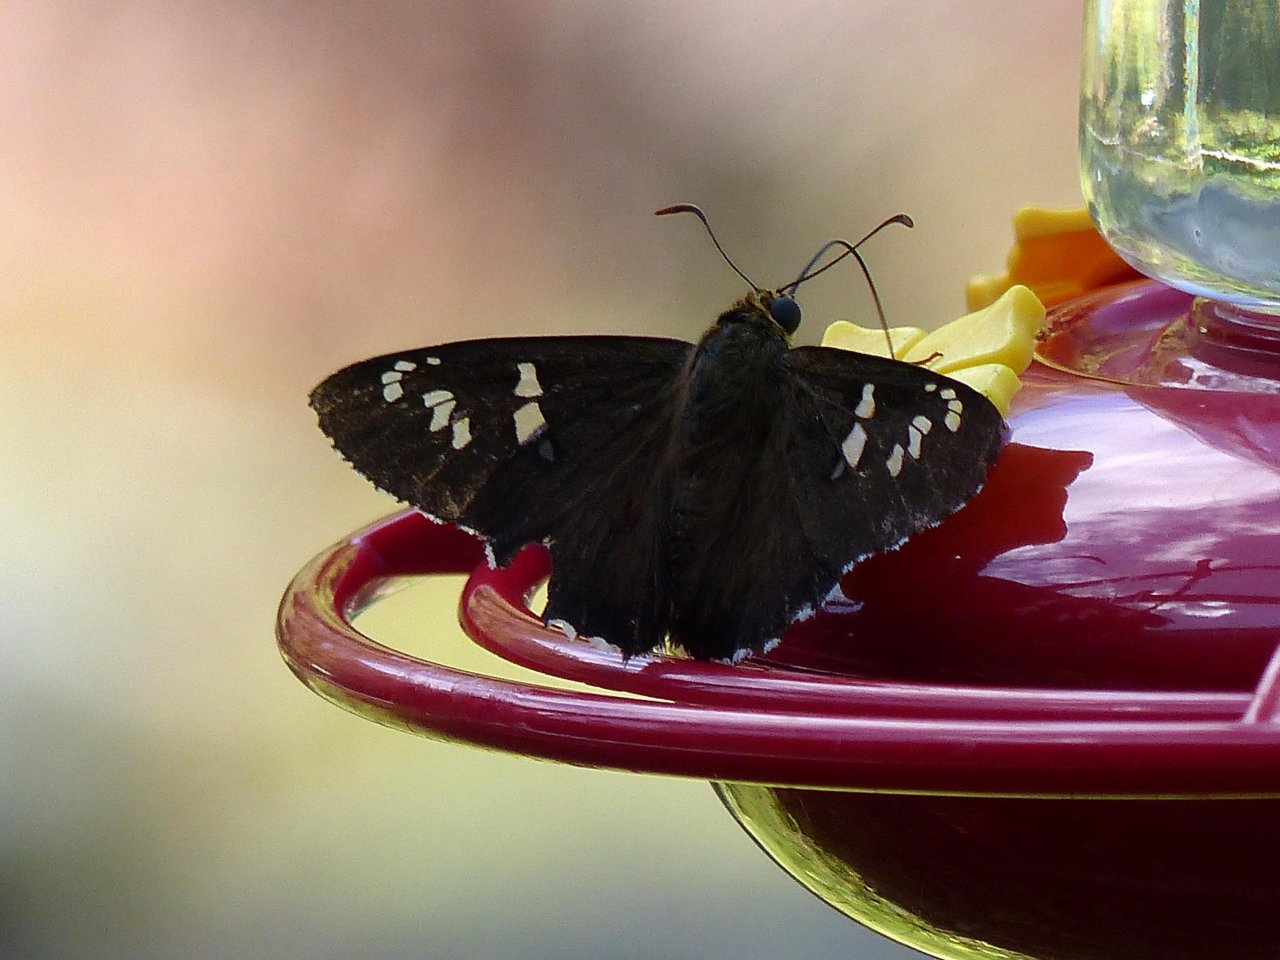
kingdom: Animalia
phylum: Arthropoda
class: Insecta
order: Lepidoptera
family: Hesperiidae
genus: Pyrrhopyge
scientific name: Pyrrhopyge araxes
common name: Dull Firetip
